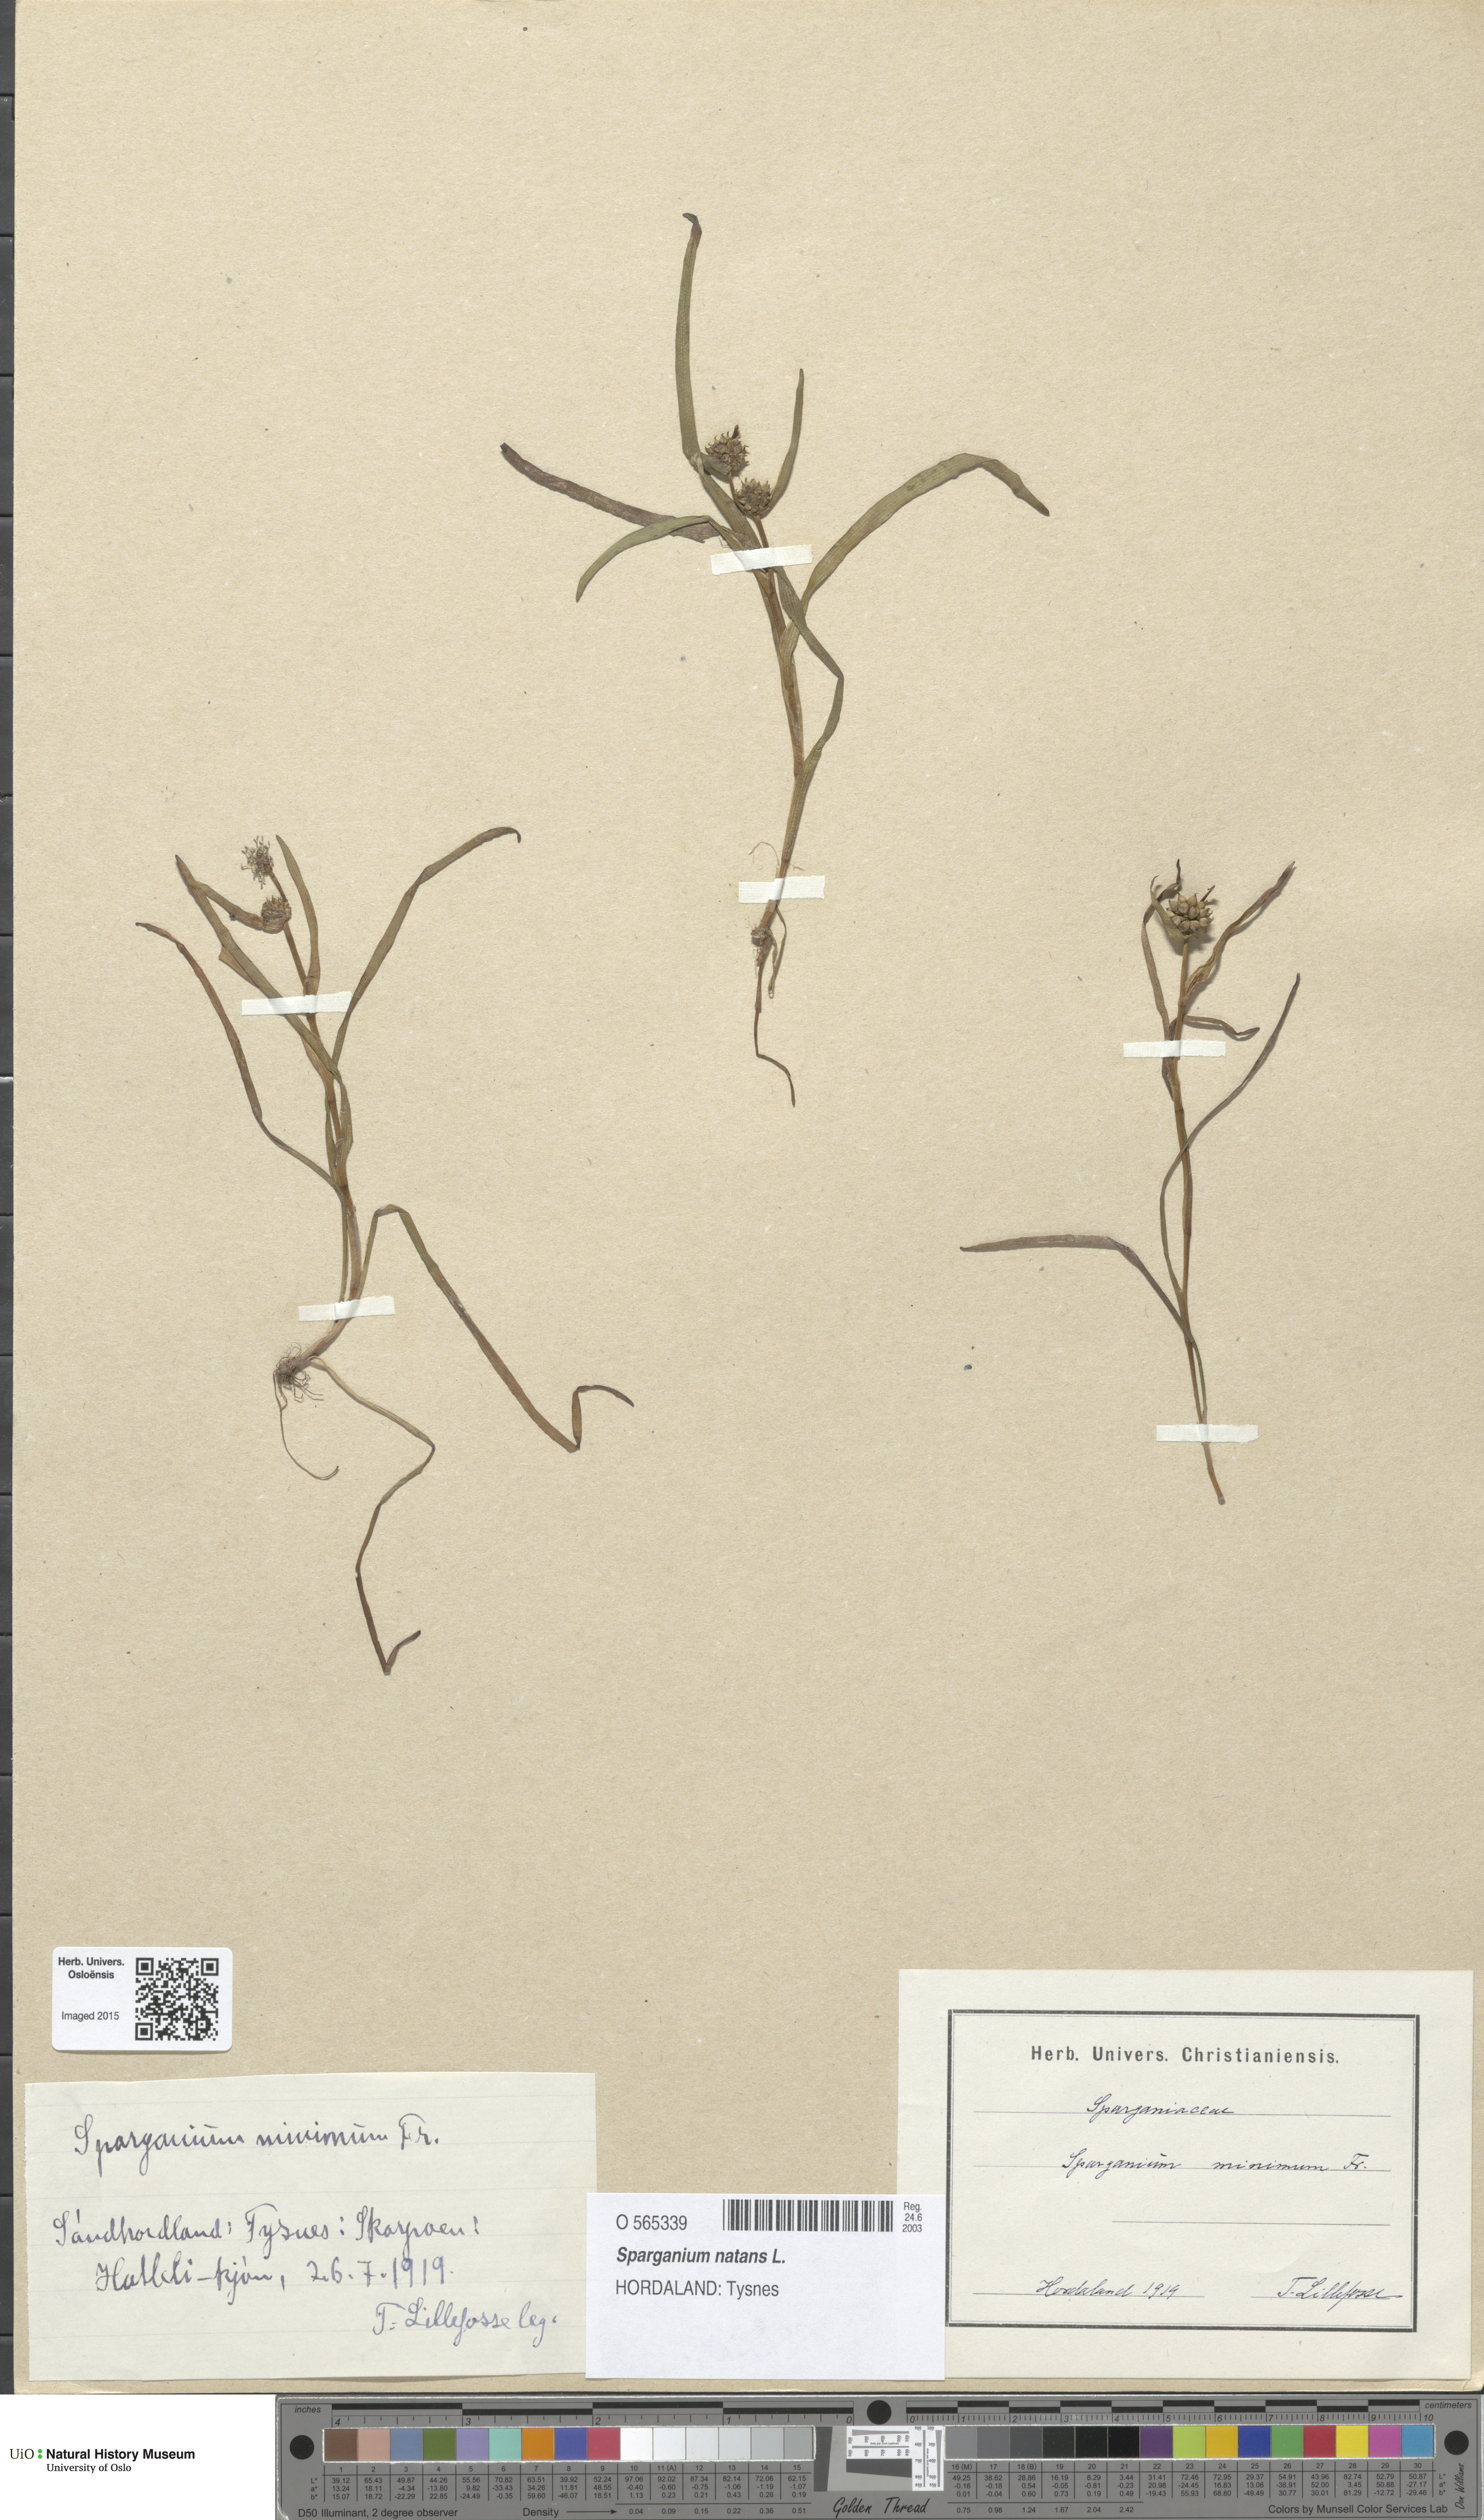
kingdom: Plantae
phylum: Tracheophyta
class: Liliopsida
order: Poales
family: Typhaceae
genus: Sparganium
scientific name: Sparganium natans
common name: Least bur-reed
